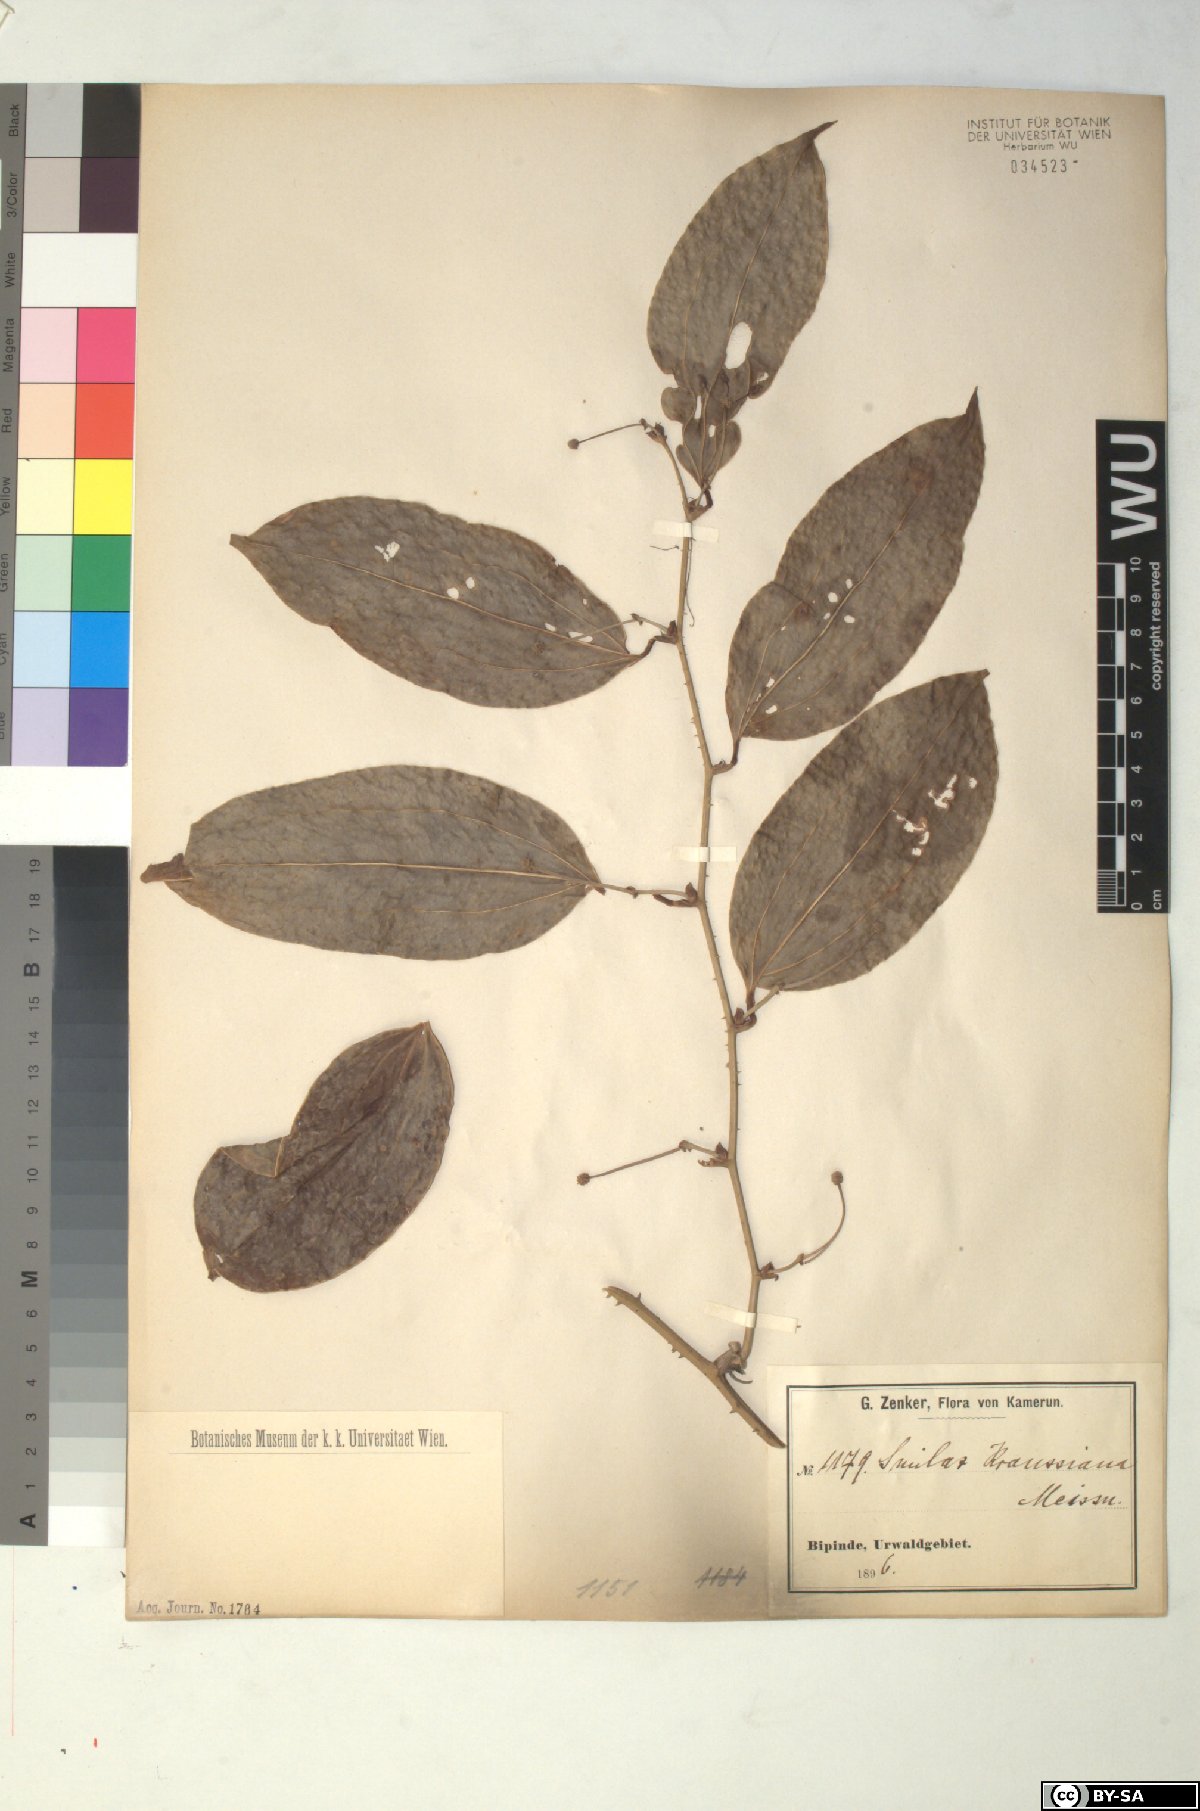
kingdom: Plantae
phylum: Tracheophyta
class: Liliopsida
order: Liliales
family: Smilacaceae
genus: Smilax
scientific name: Smilax anceps
